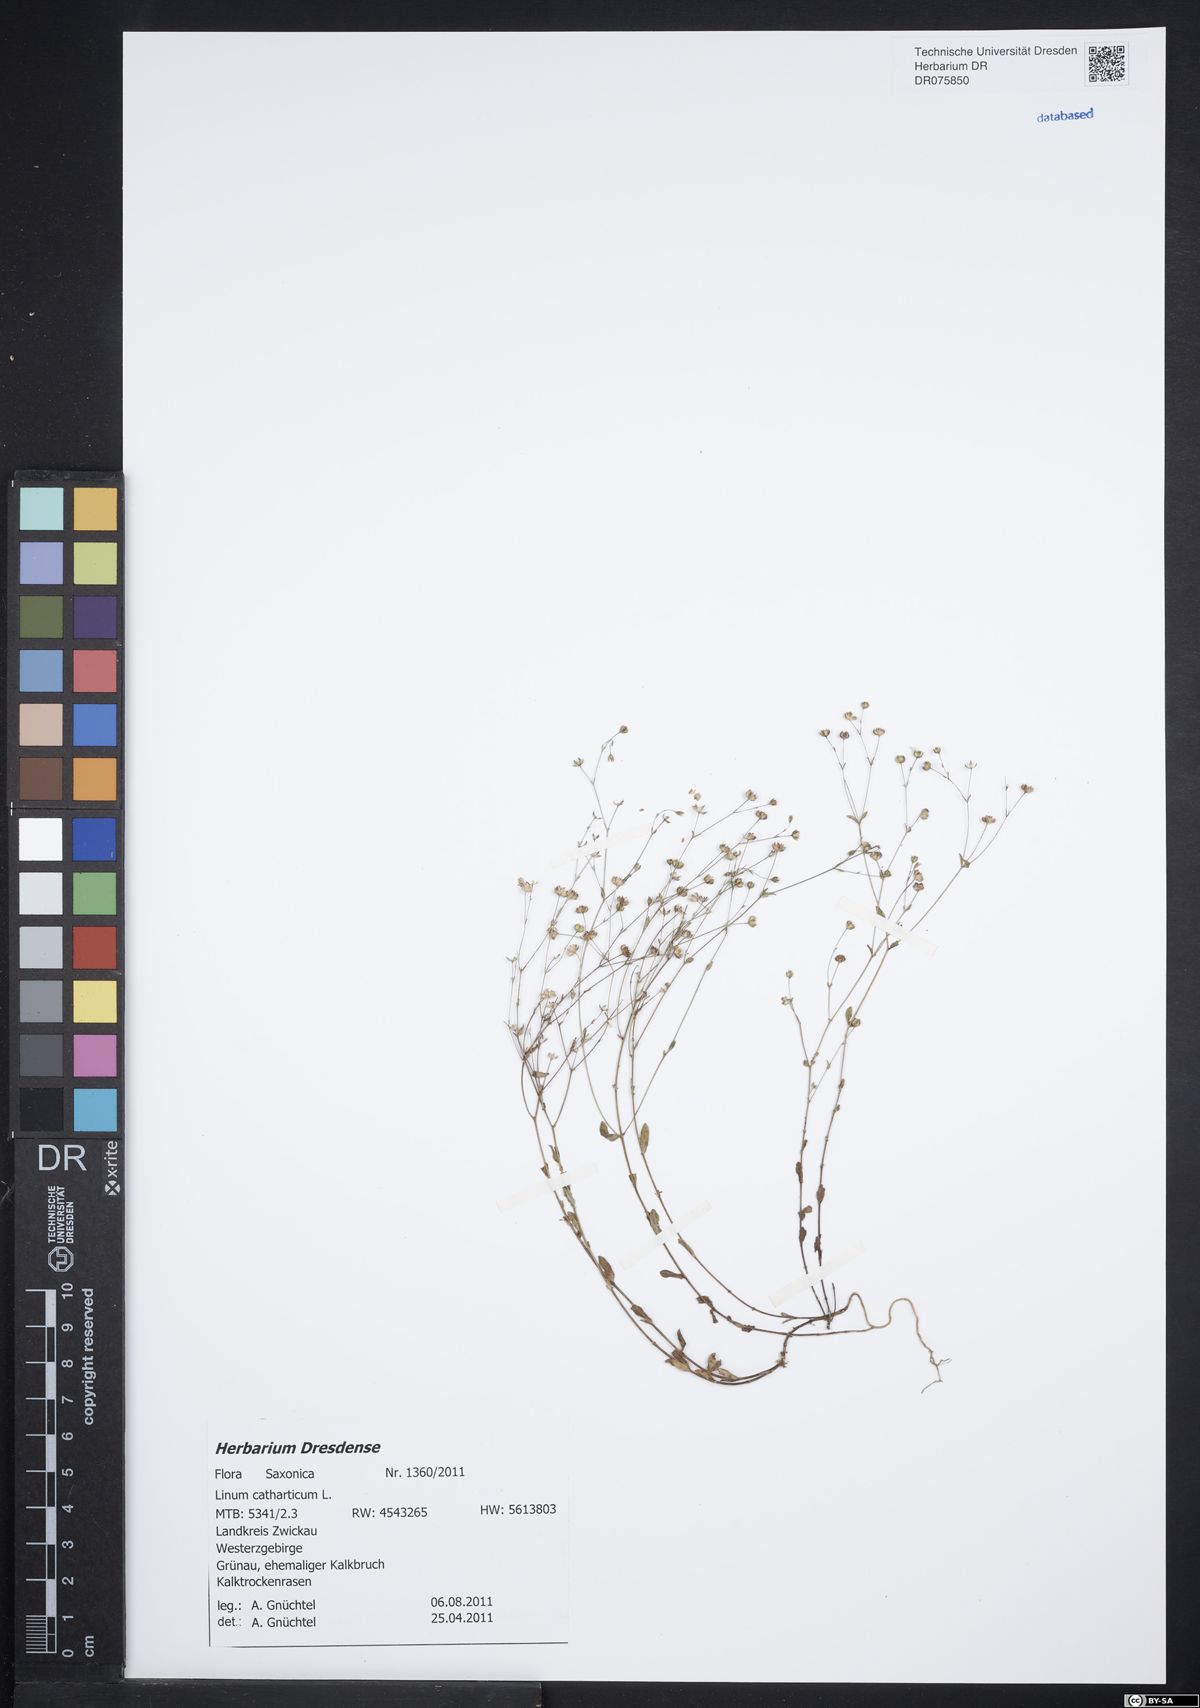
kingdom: Plantae
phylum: Tracheophyta
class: Magnoliopsida
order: Malpighiales
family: Linaceae
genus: Linum
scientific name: Linum catharticum
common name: Fairy flax
